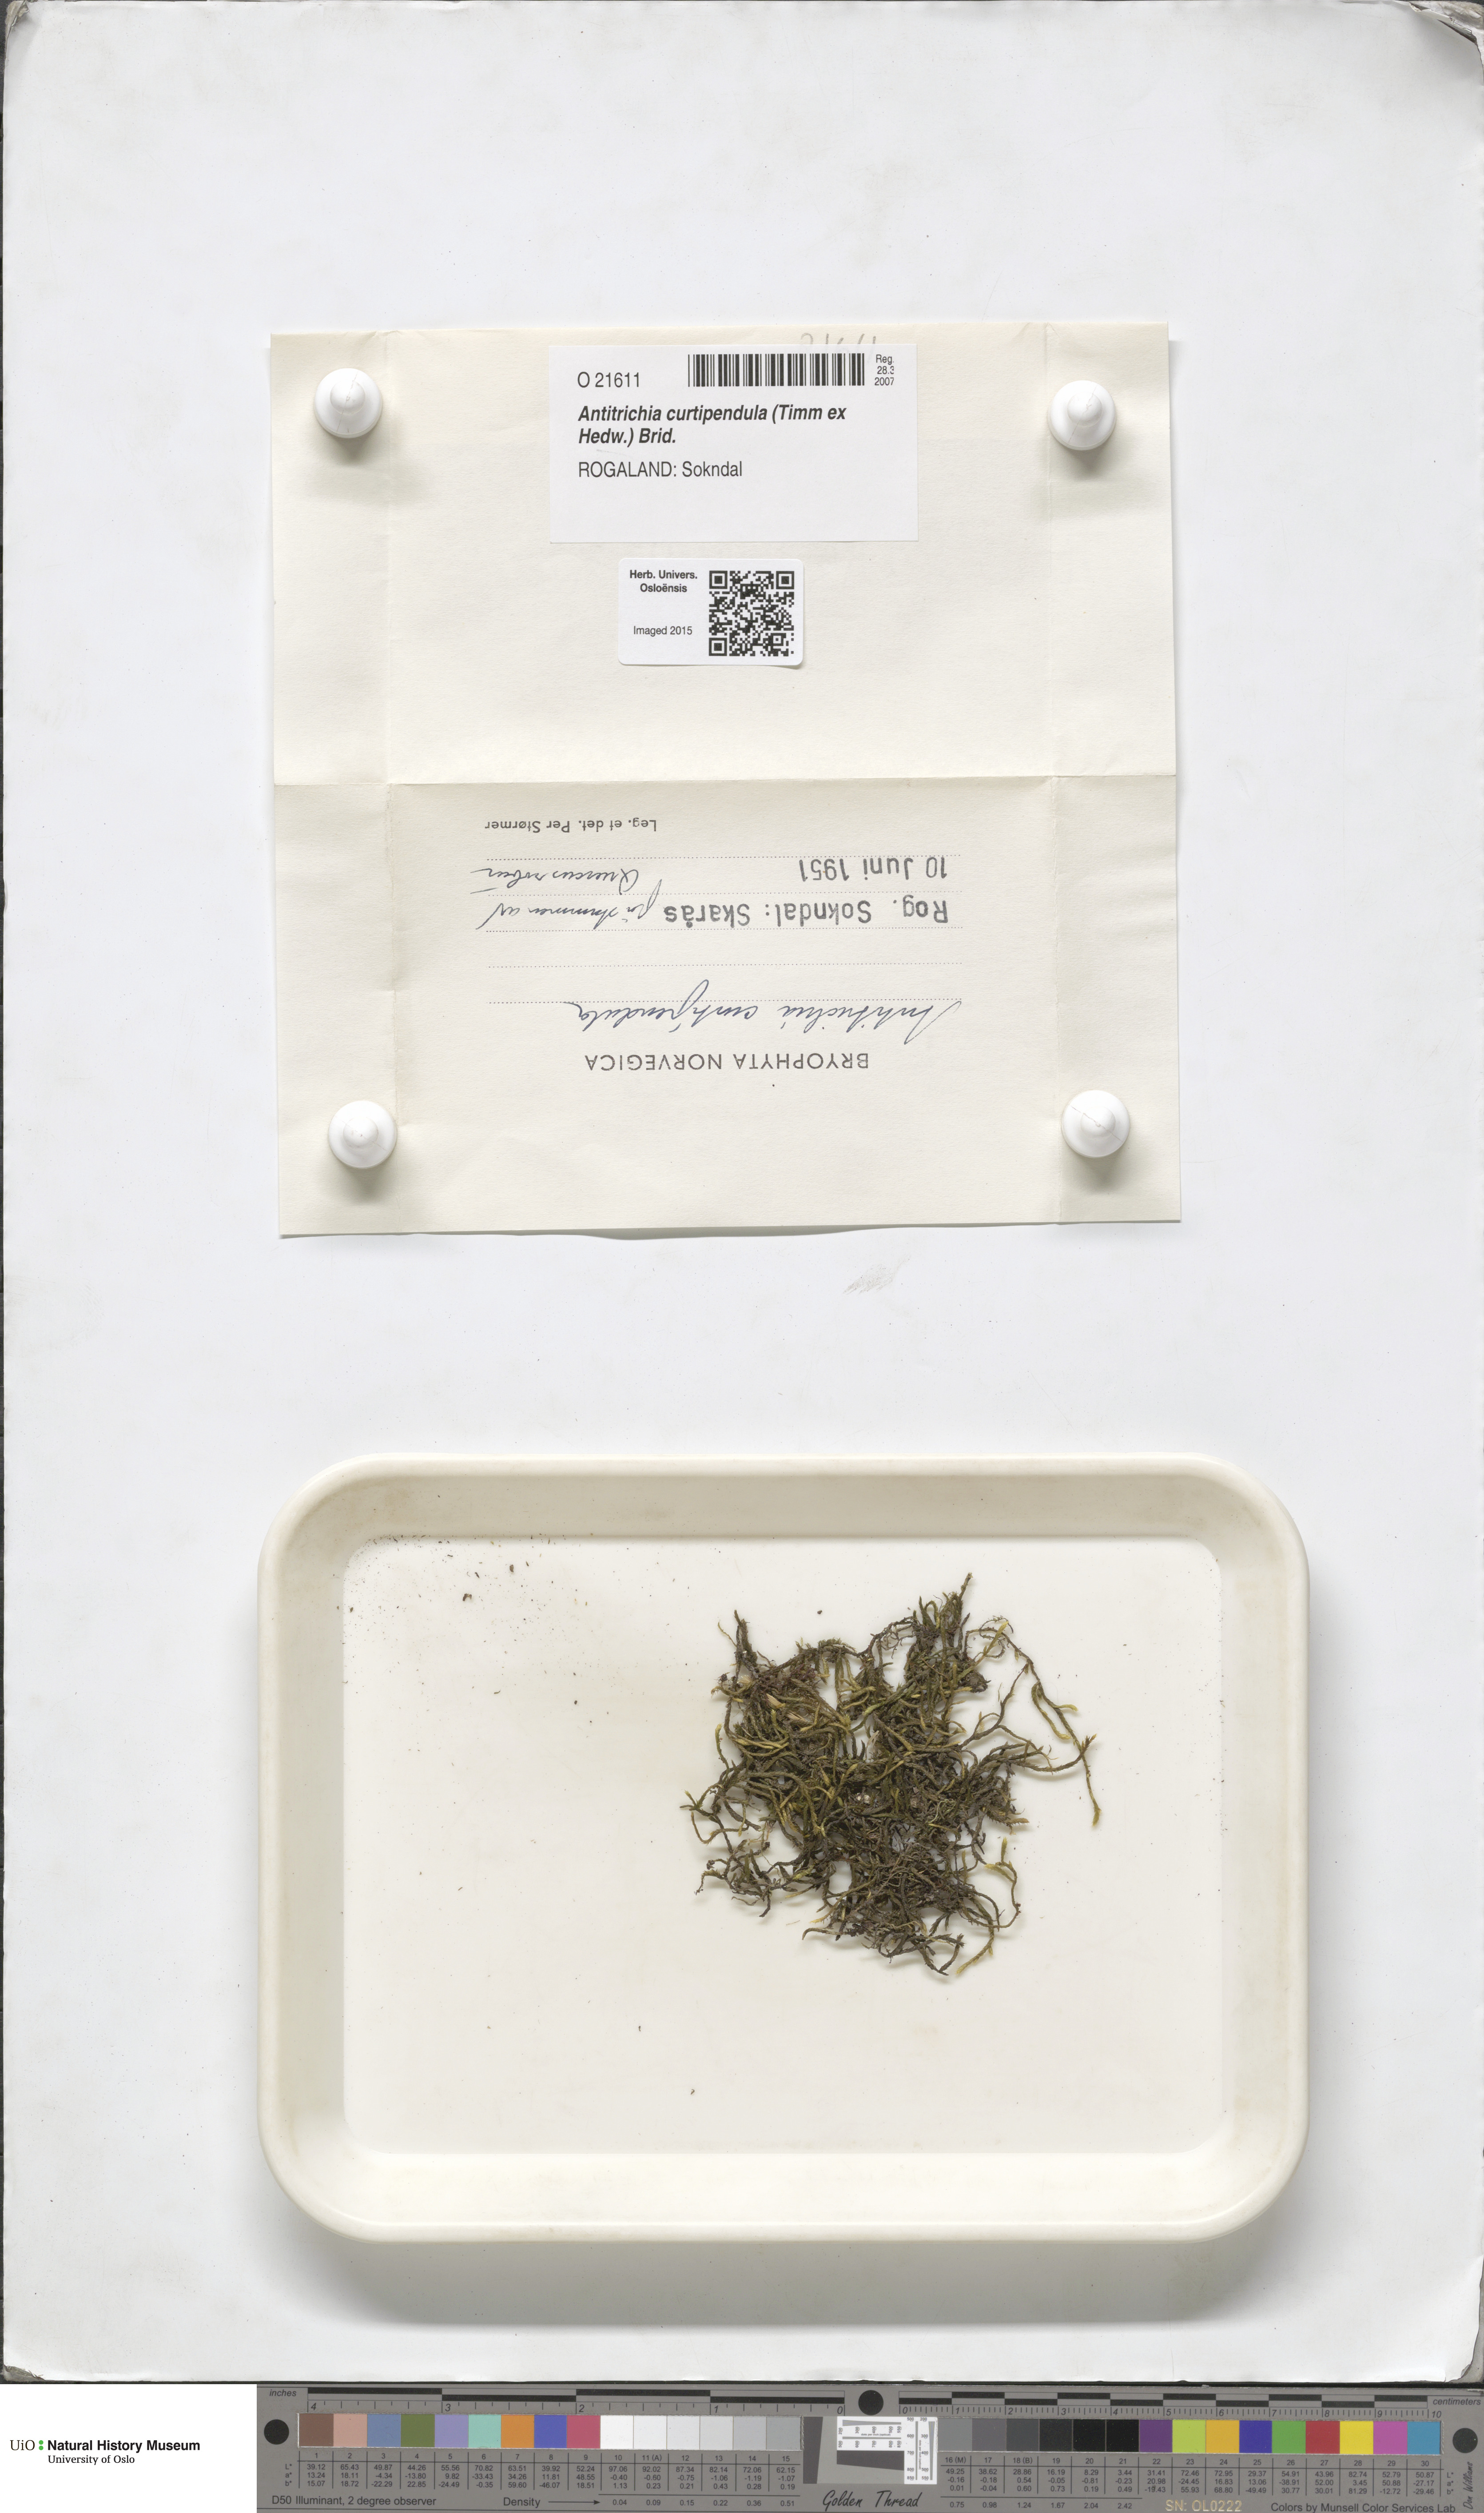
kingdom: Plantae
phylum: Bryophyta
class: Bryopsida
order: Hypnales
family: Antitrichiaceae
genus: Antitrichia
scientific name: Antitrichia curtipendula
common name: Pendulous wing-moss
